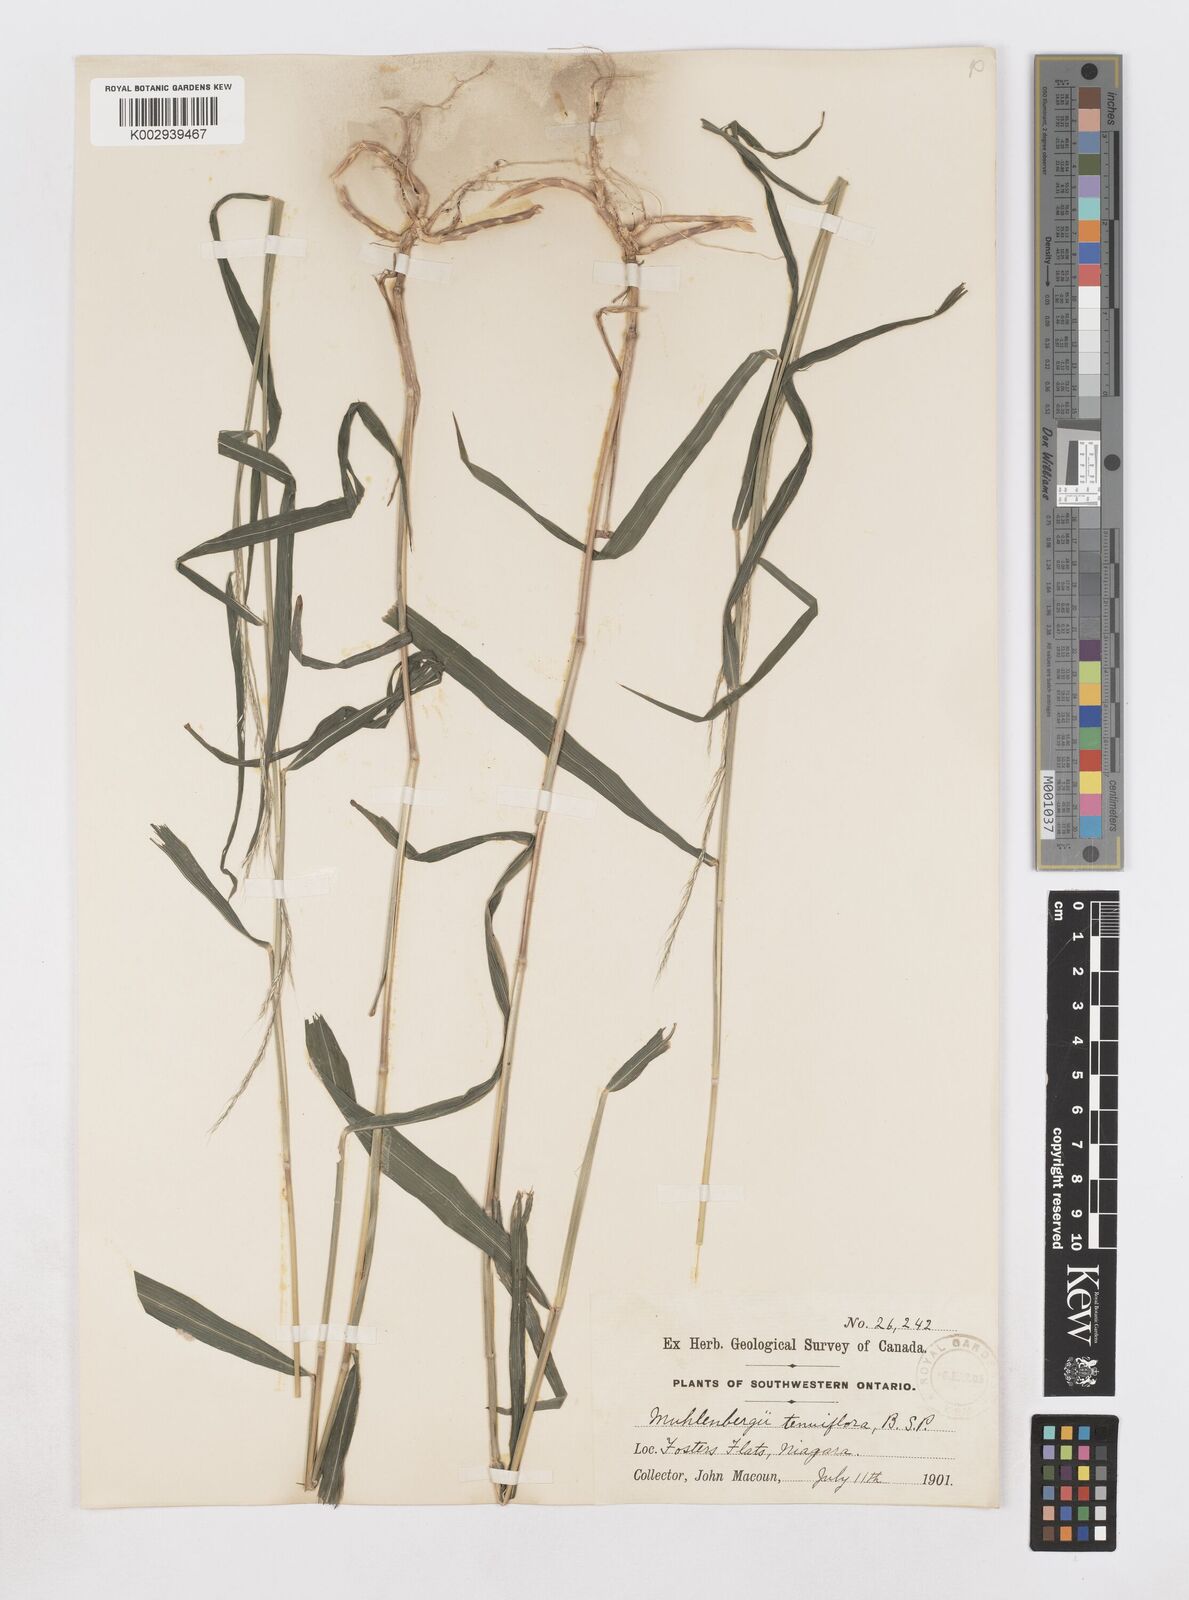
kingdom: Plantae
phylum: Tracheophyta
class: Liliopsida
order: Poales
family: Poaceae
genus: Muhlenbergia
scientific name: Muhlenbergia tenuiflora
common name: Slender muhly
